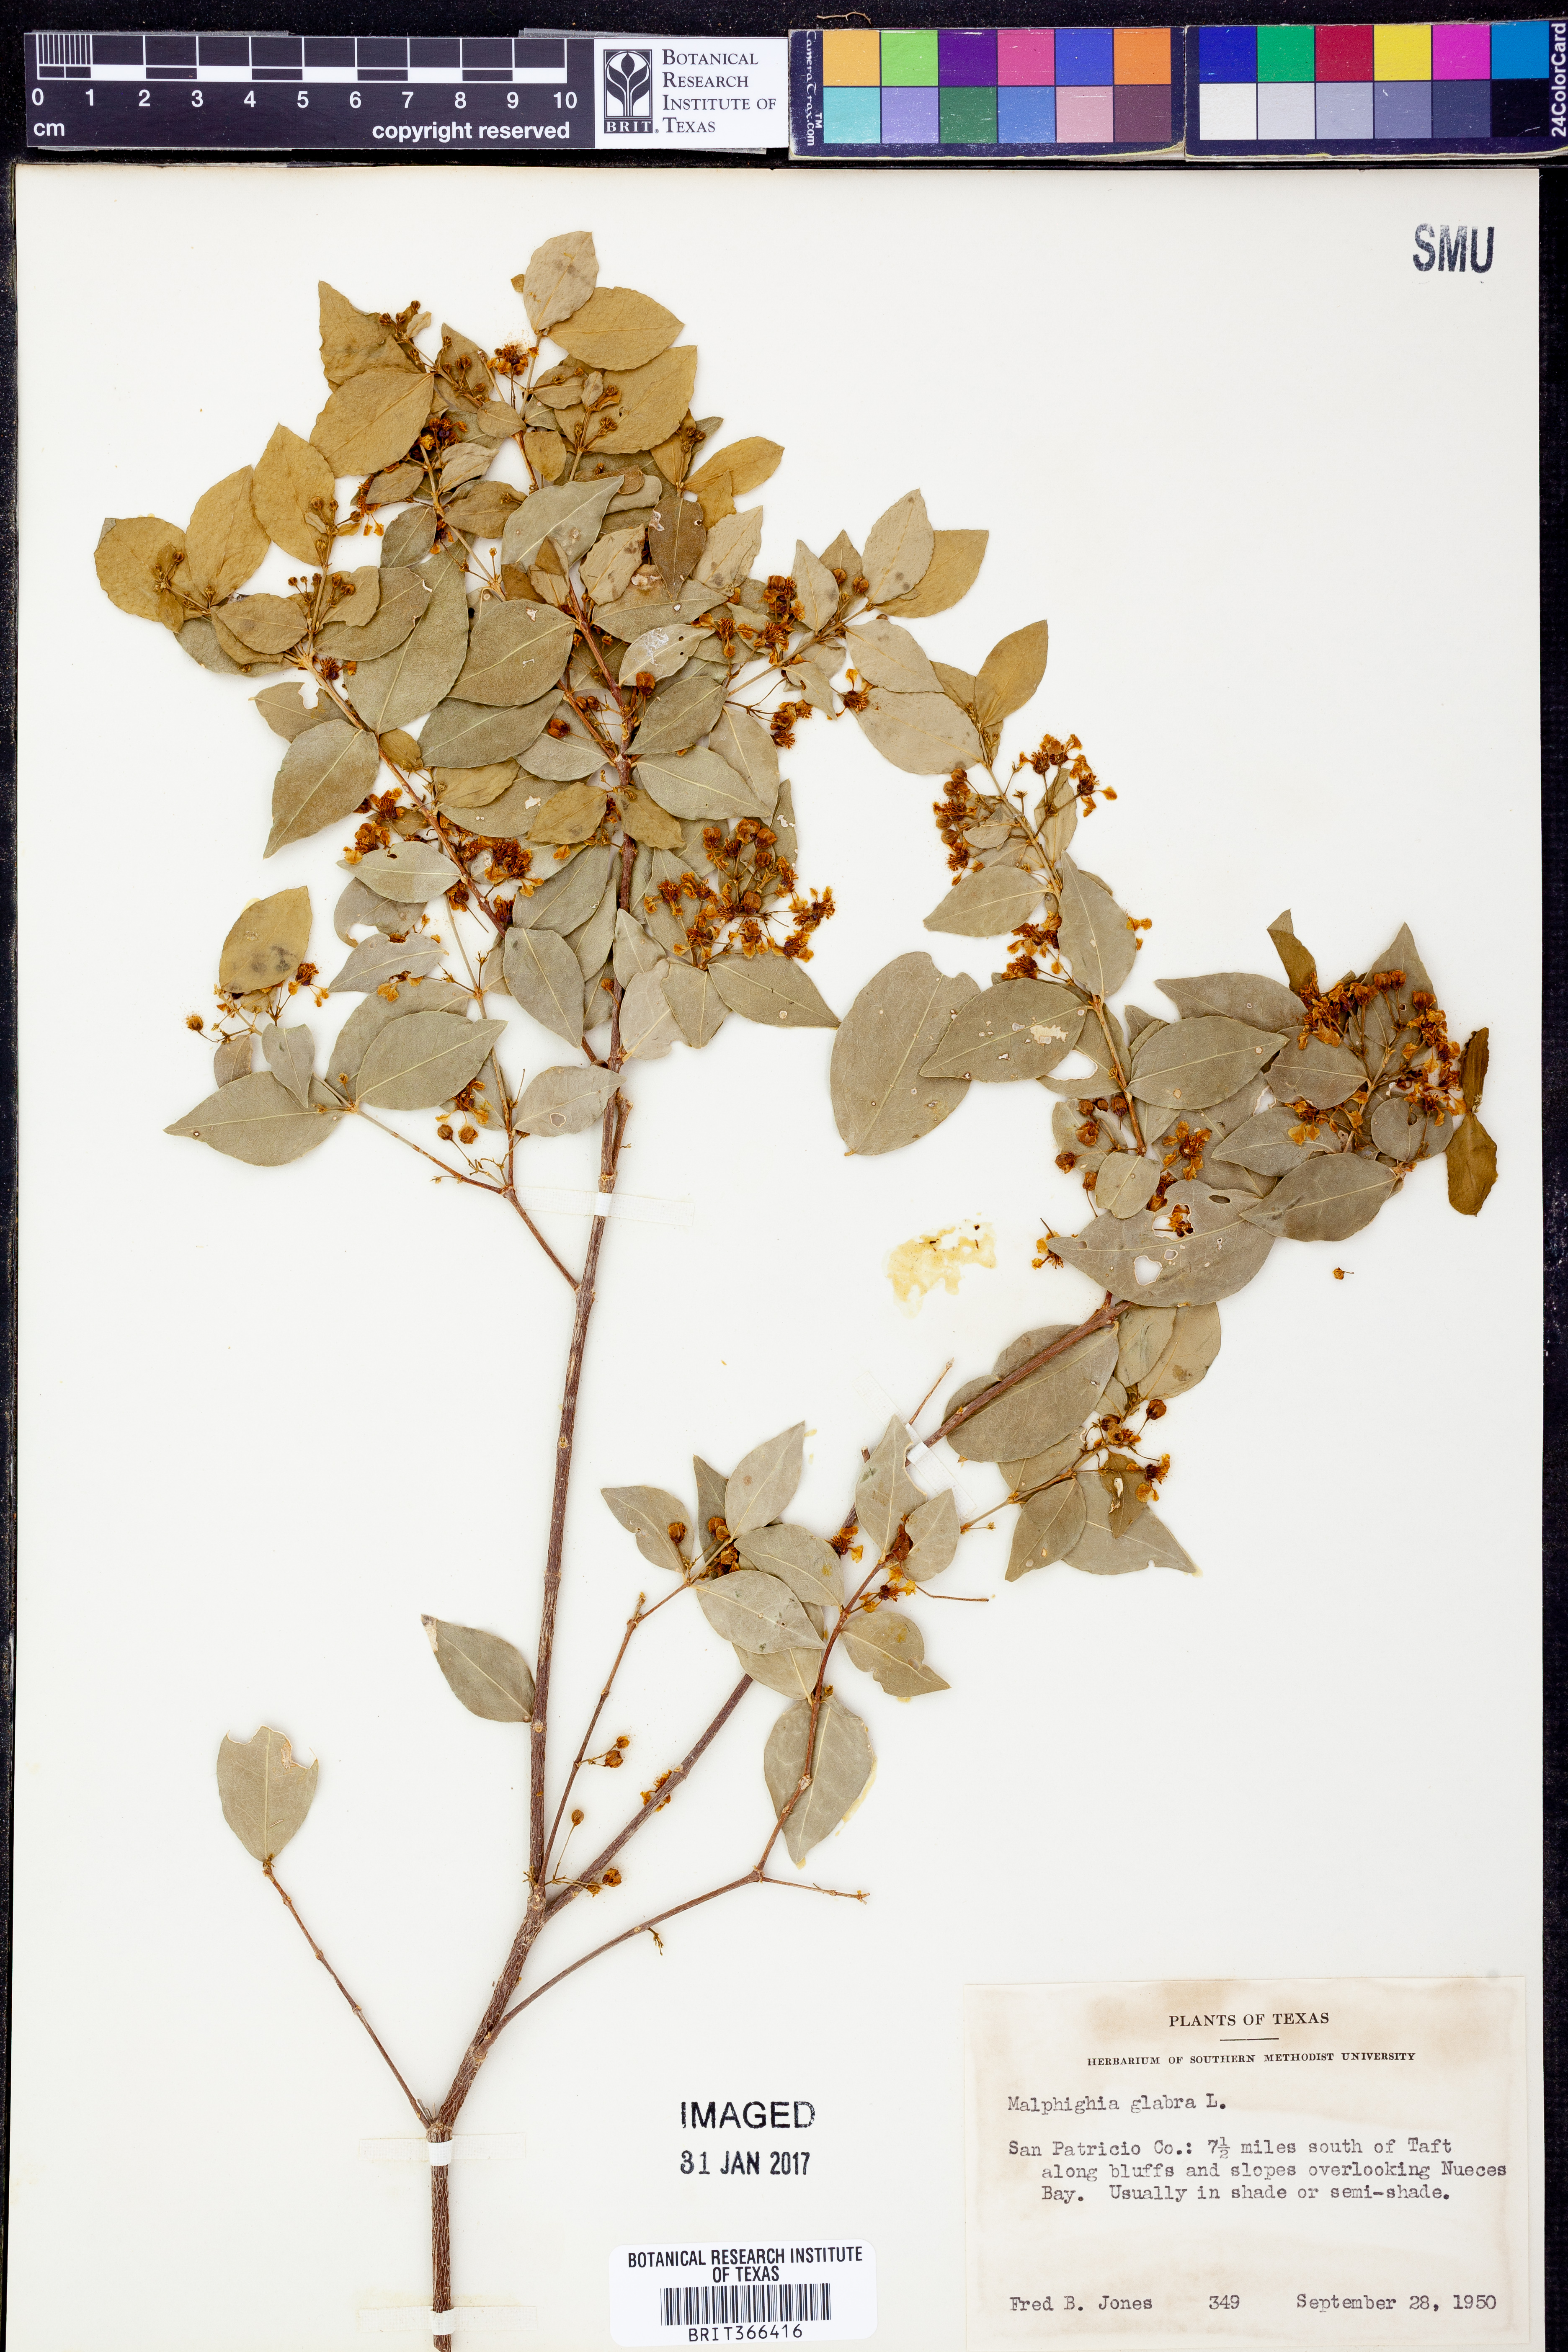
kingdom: Plantae
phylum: Tracheophyta
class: Magnoliopsida
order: Malpighiales
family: Malpighiaceae
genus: Malpighia
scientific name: Malpighia glabra
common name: Barbados cherry
